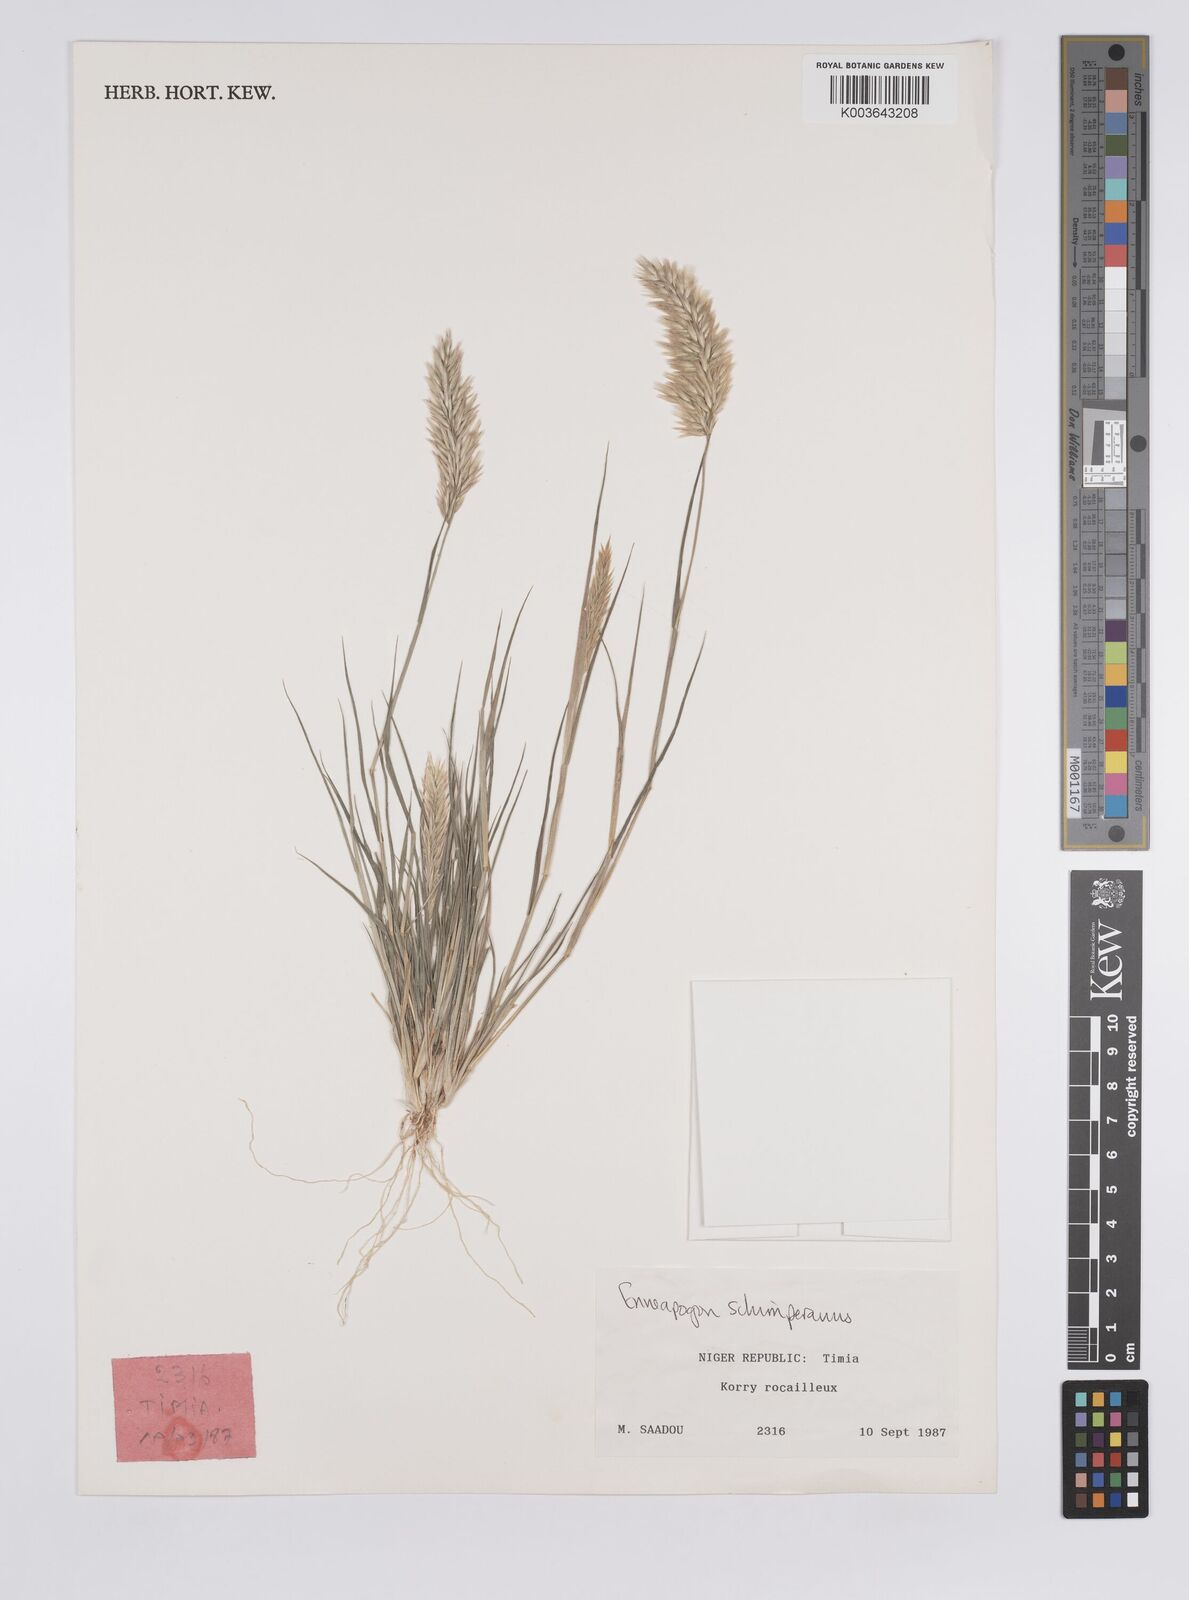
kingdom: Plantae
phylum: Tracheophyta
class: Liliopsida
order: Poales
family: Poaceae
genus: Enneapogon
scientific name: Enneapogon persicus
